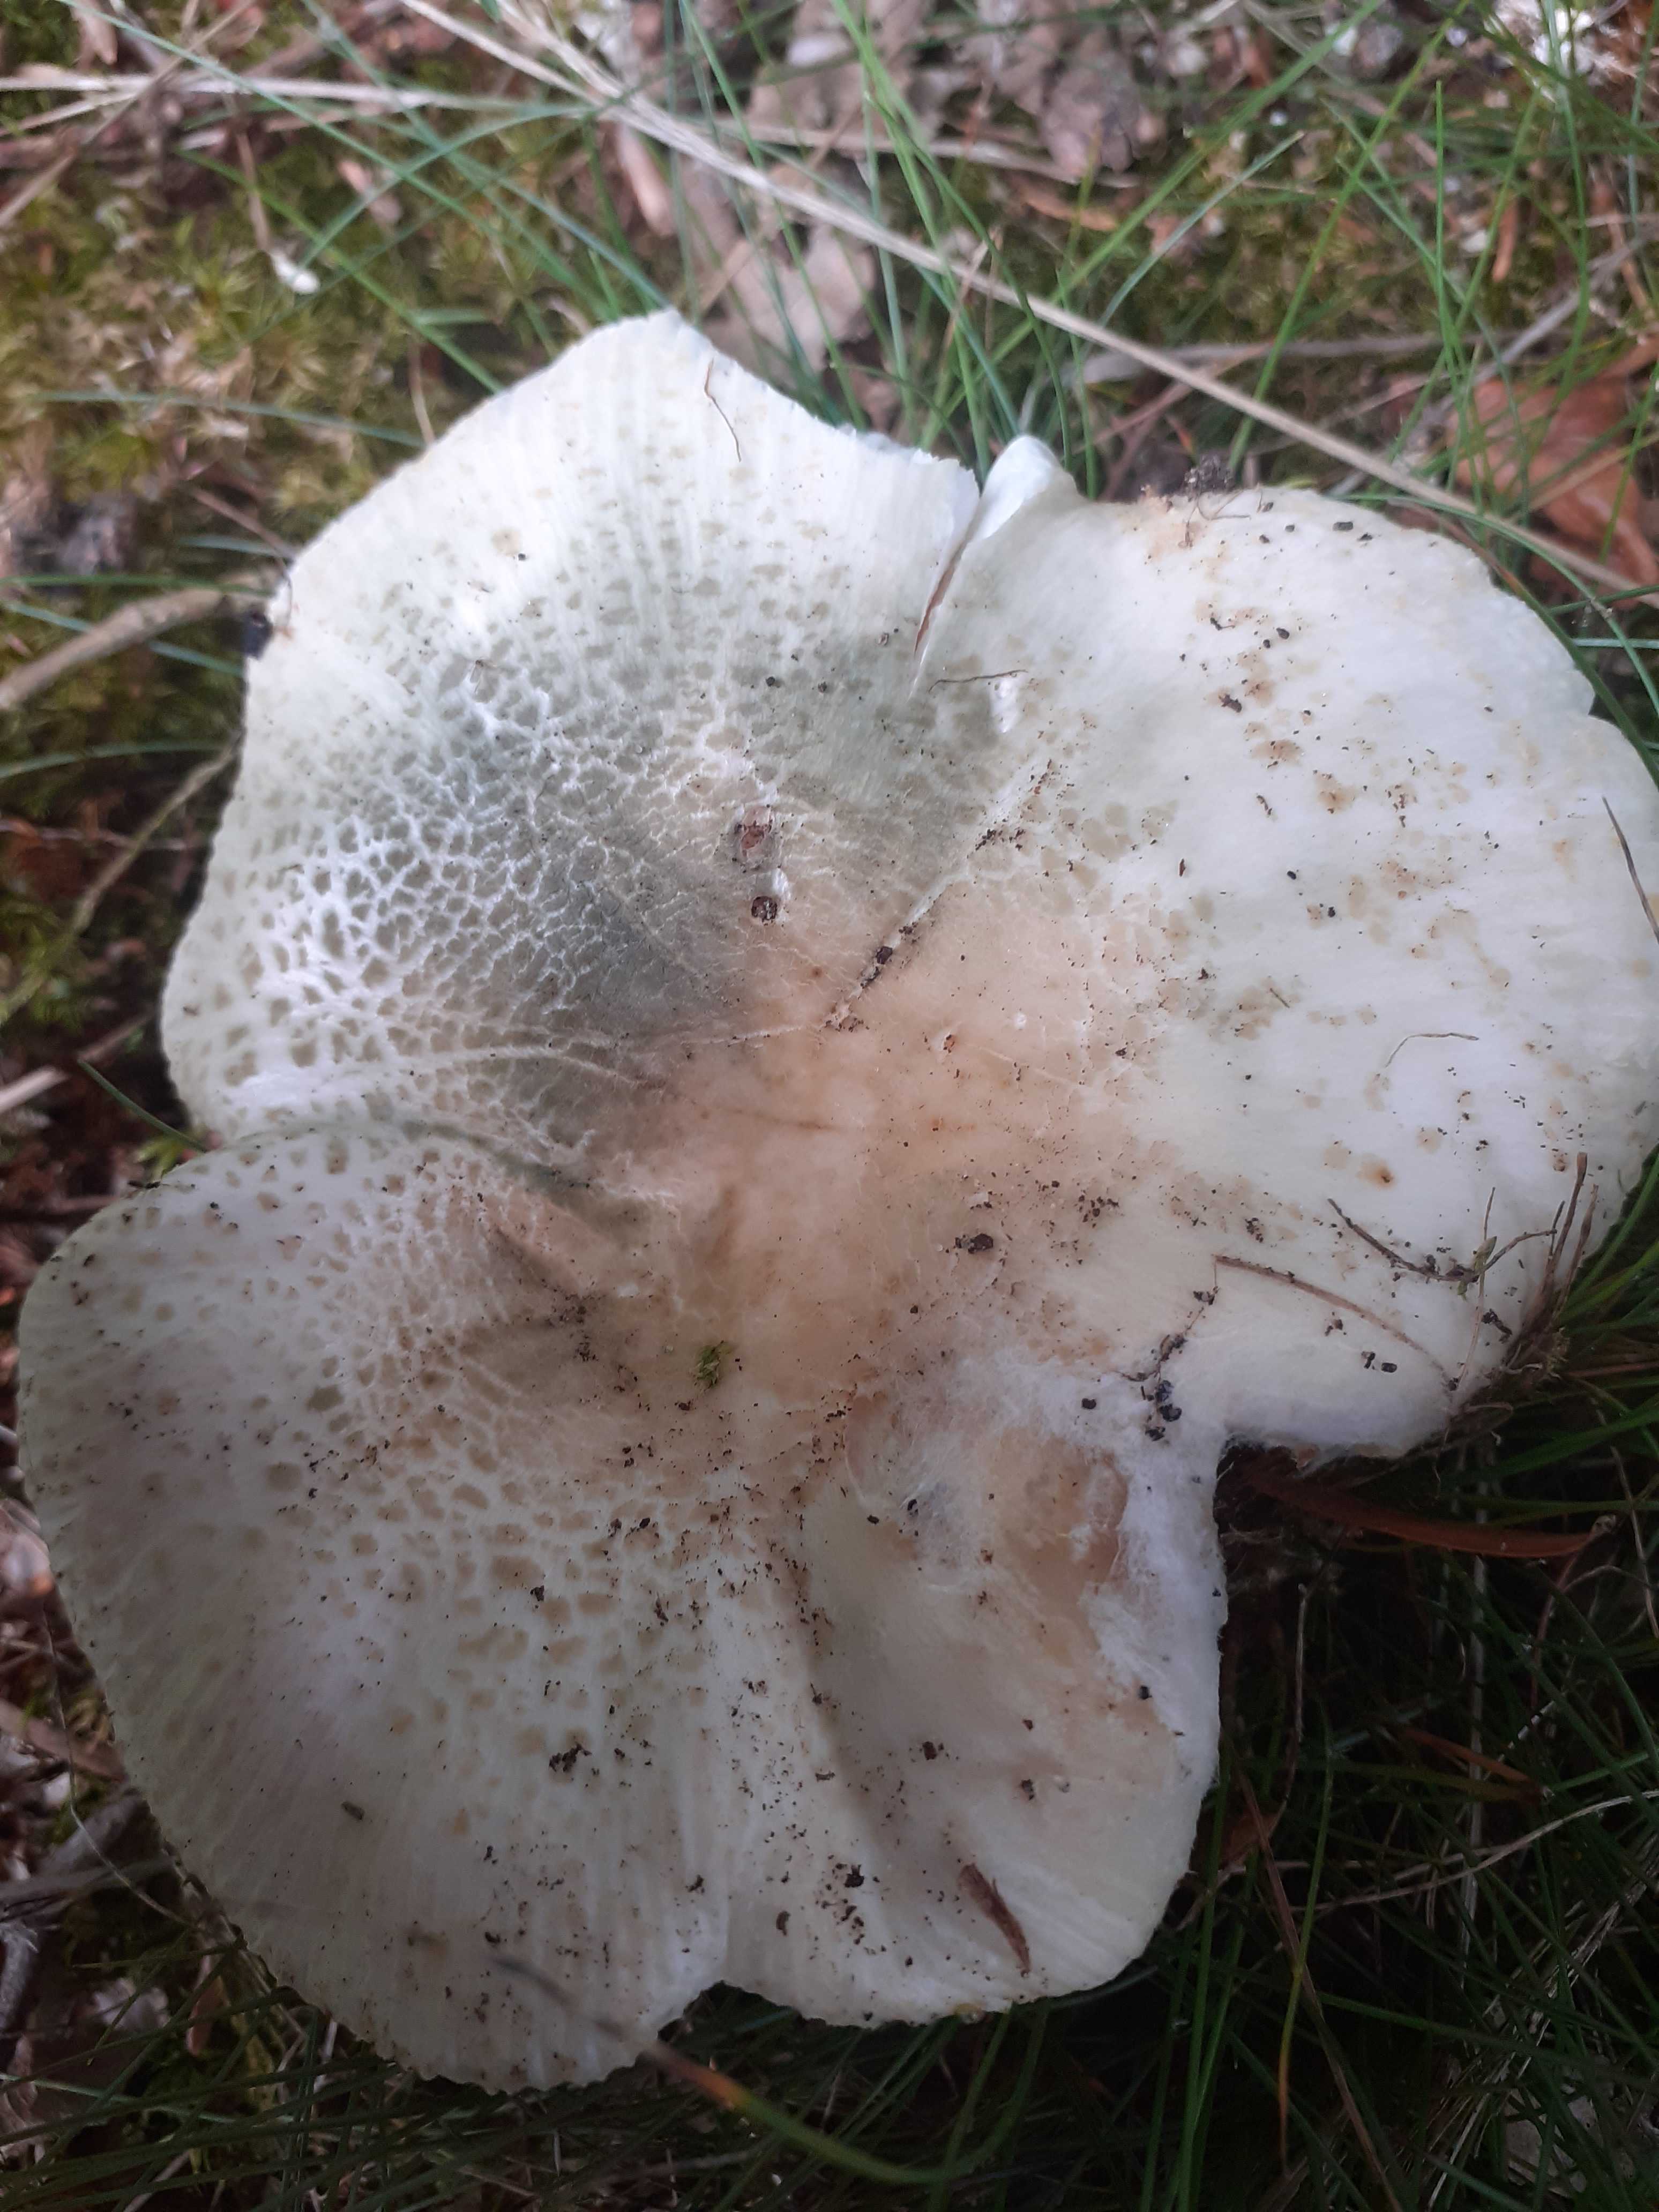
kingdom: Fungi
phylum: Basidiomycota
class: Agaricomycetes
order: Russulales
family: Russulaceae
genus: Russula
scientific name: Russula virescens
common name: spanskgrøn skørhat
